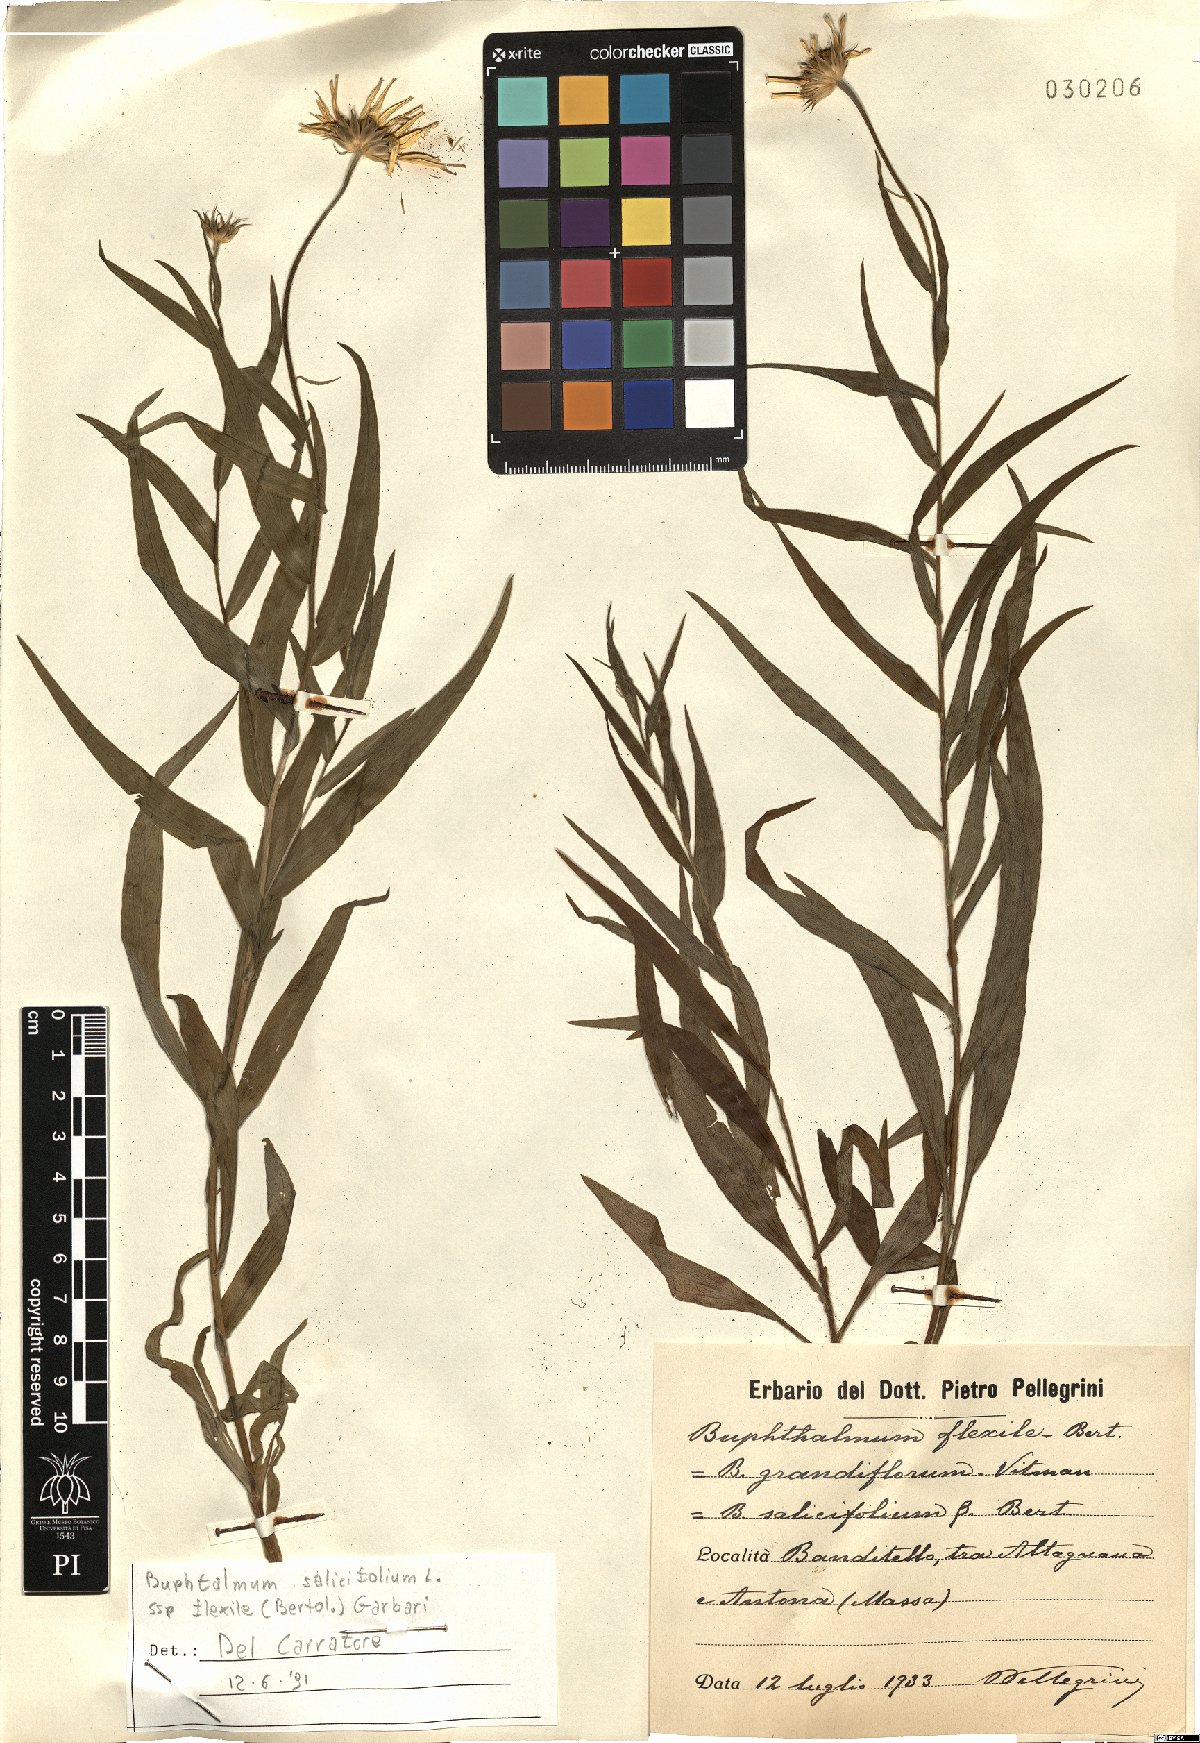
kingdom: Plantae
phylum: Tracheophyta
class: Magnoliopsida
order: Asterales
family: Asteraceae
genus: Buphthalmum
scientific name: Buphthalmum salicifolium
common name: Willow-leaved yellow-oxeye
